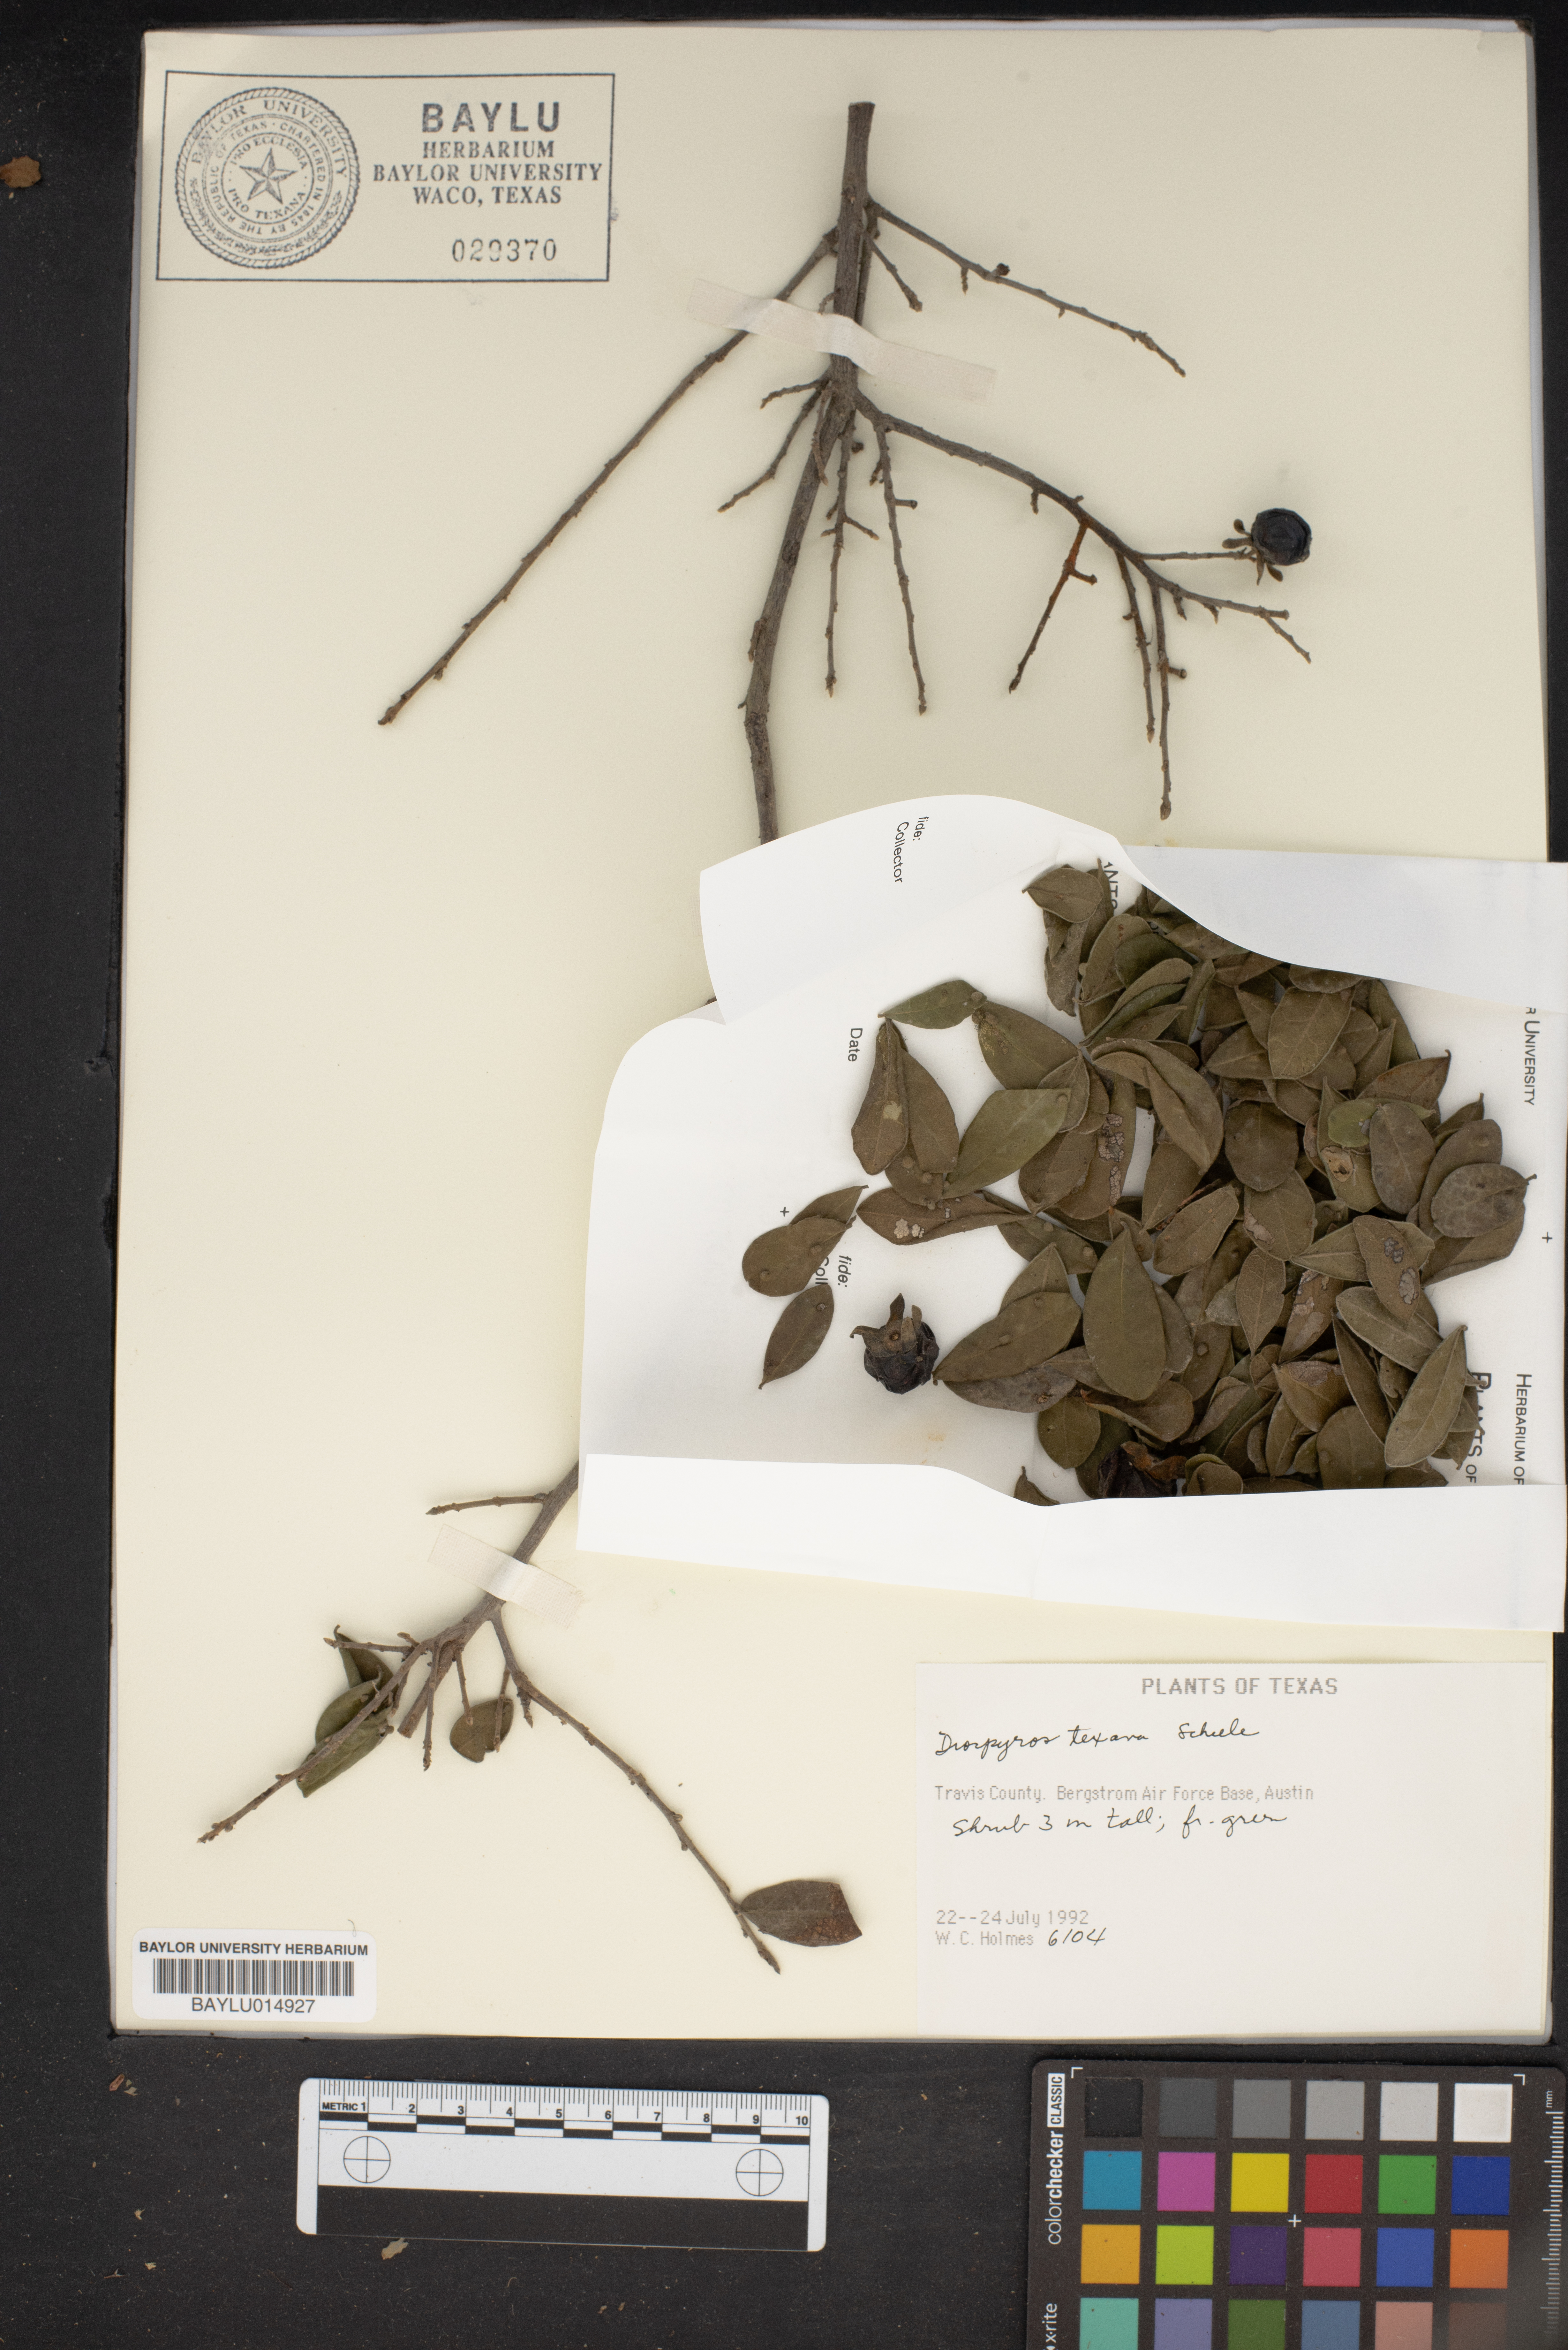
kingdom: Plantae
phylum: Tracheophyta
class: Magnoliopsida
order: Ericales
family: Ebenaceae
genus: Diospyros
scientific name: Diospyros texana
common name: Texas persimmon
